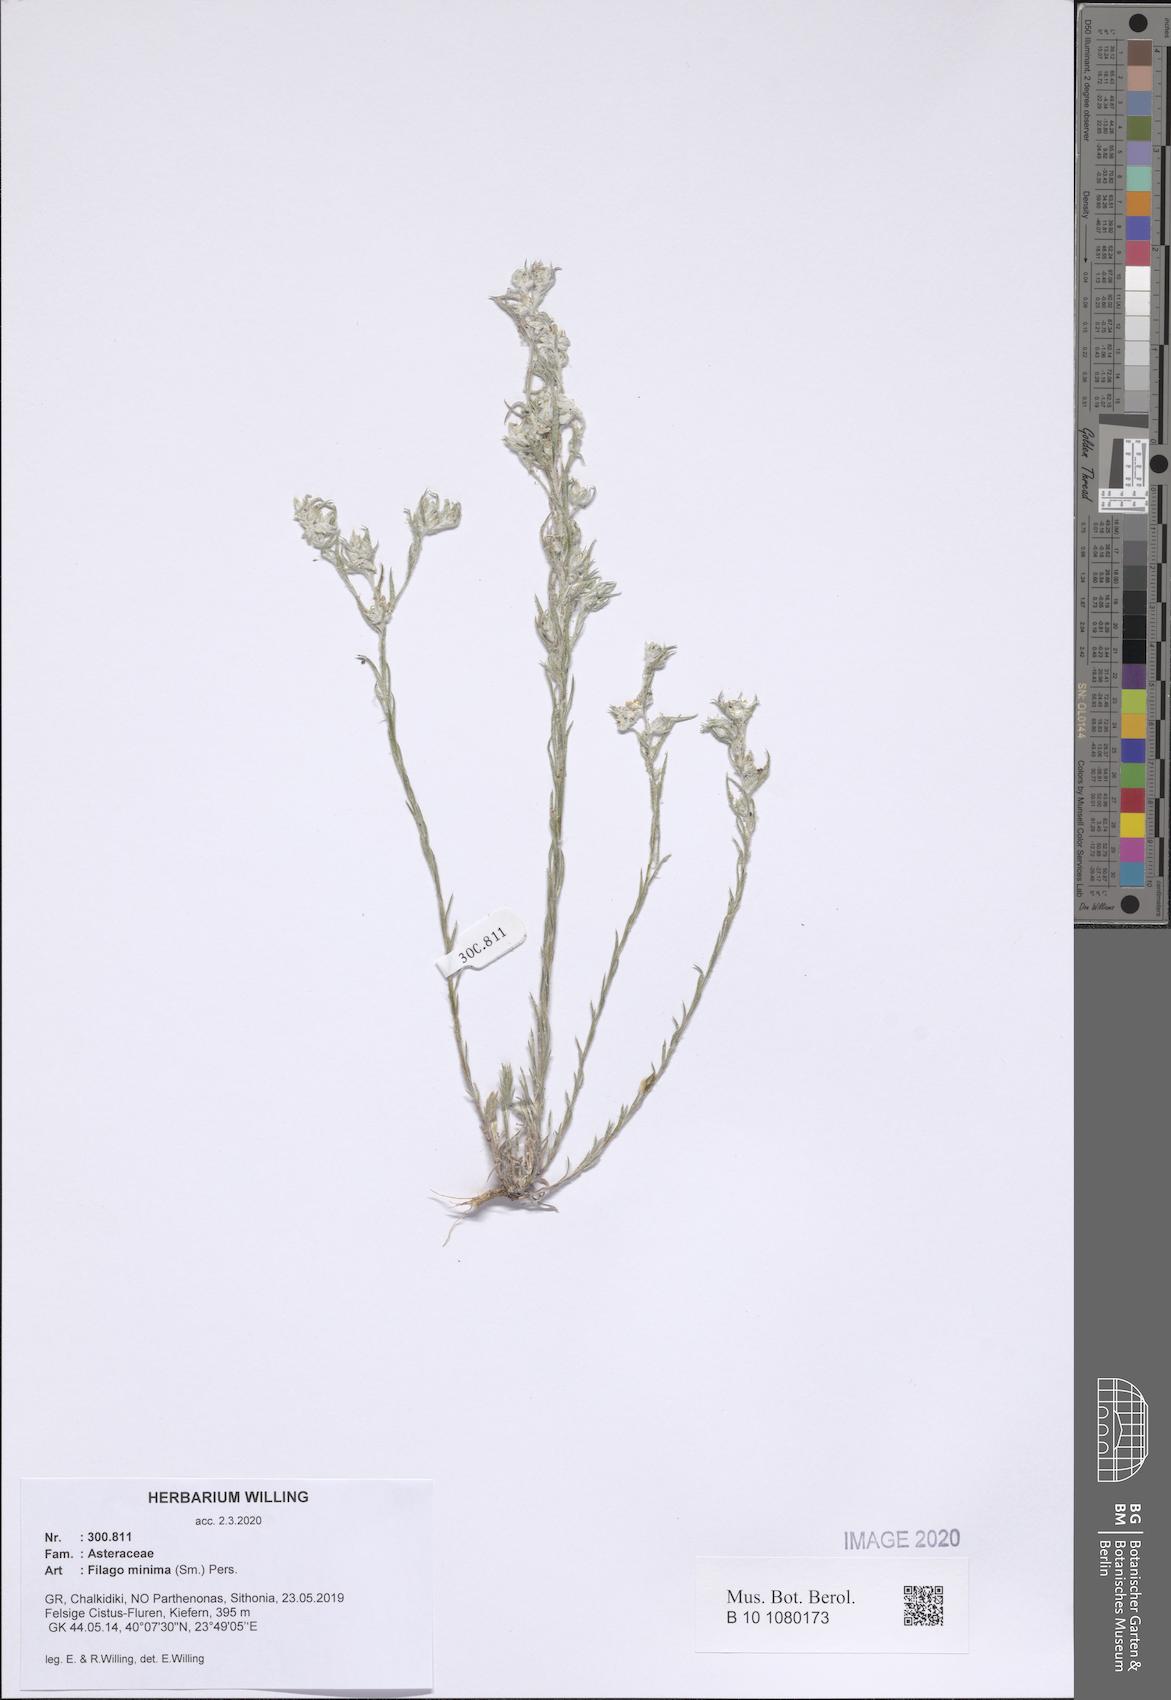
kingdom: Plantae
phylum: Tracheophyta
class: Magnoliopsida
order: Asterales
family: Asteraceae
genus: Logfia
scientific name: Logfia minima
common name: Little cottonrose
